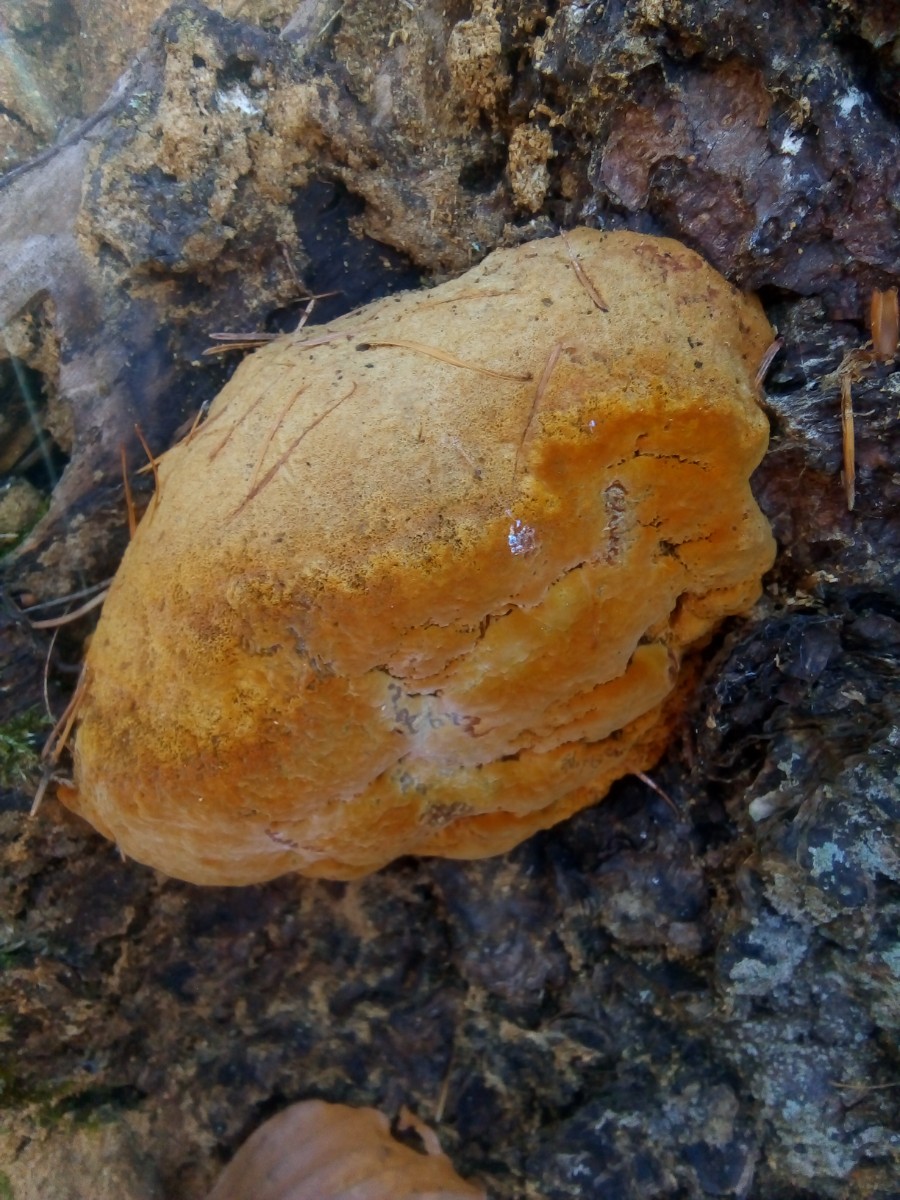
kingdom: Fungi
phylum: Basidiomycota
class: Agaricomycetes
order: Gloeophyllales
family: Gloeophyllaceae
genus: Gloeophyllum
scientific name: Gloeophyllum odoratum
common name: duftende korkhat
